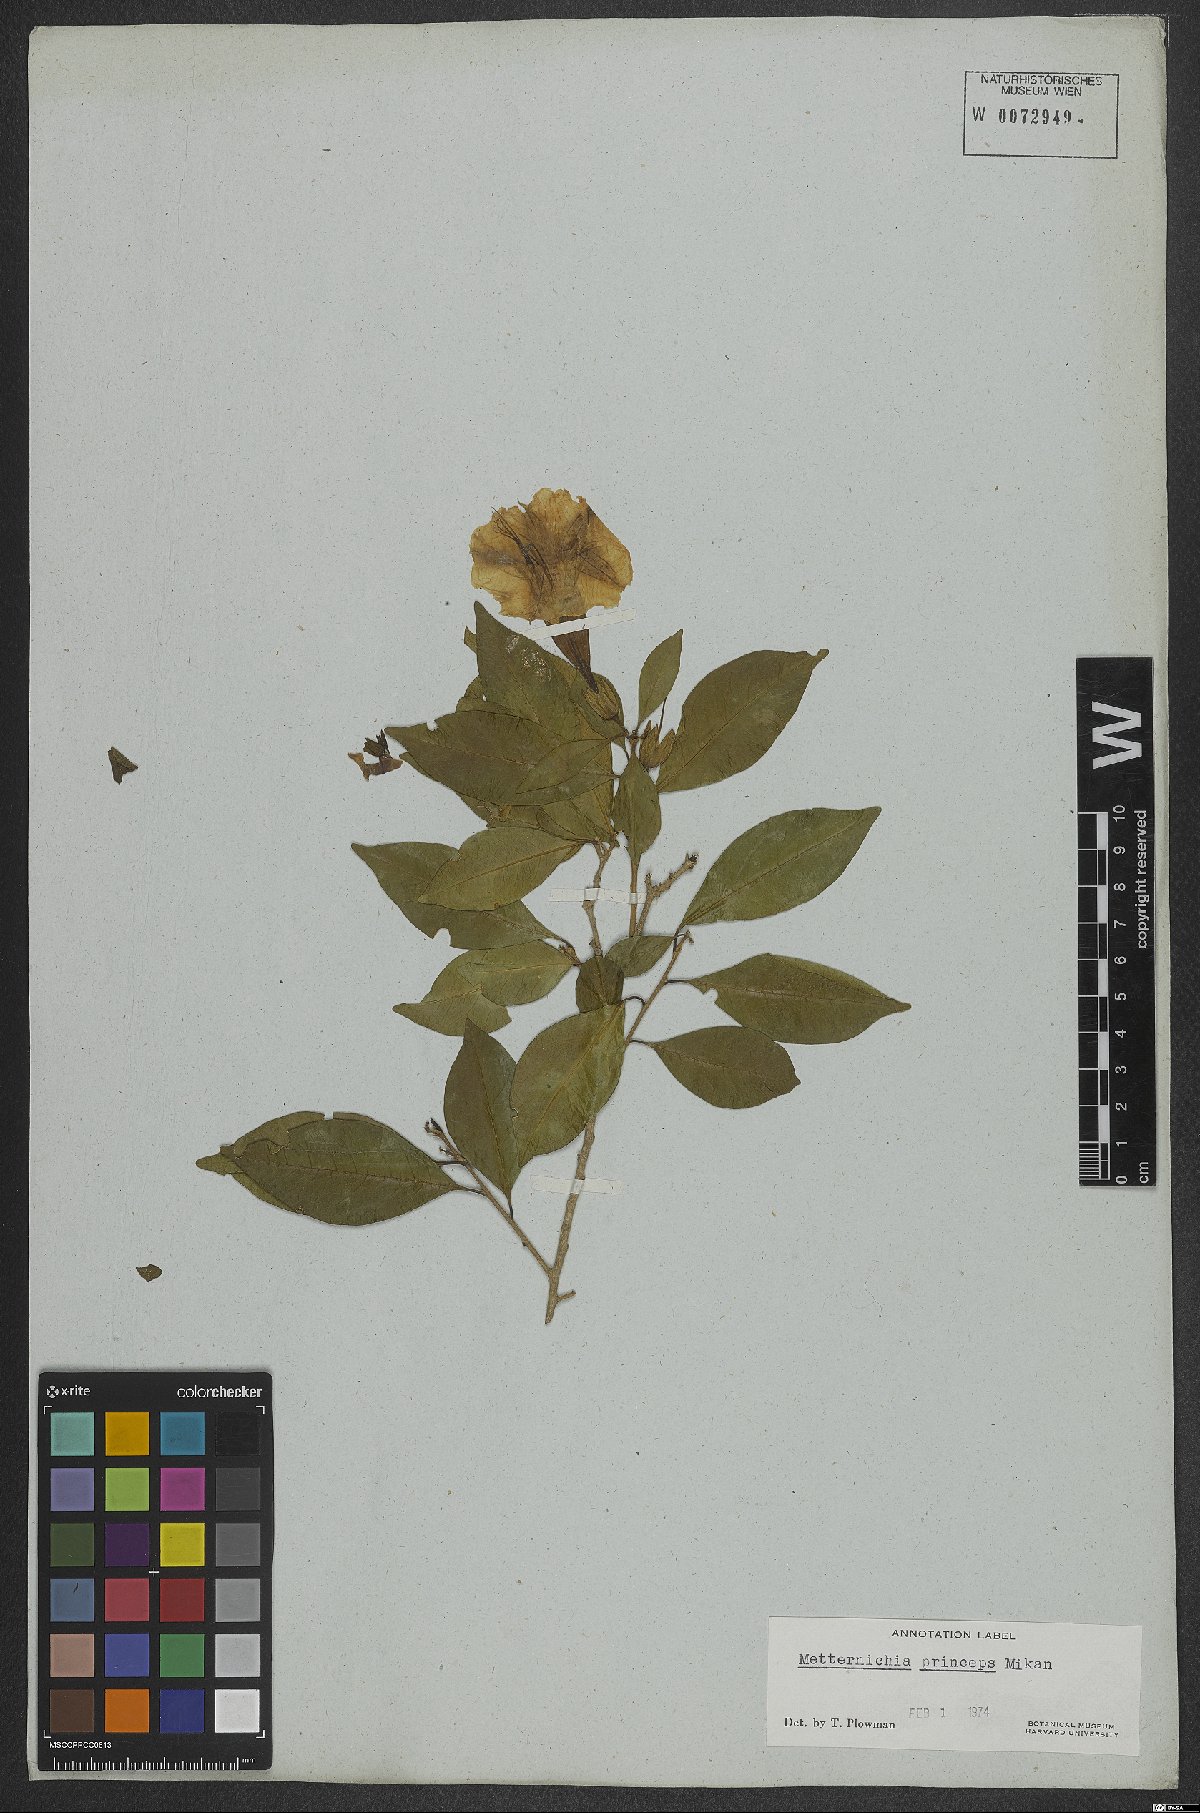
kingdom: Plantae
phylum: Tracheophyta
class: Magnoliopsida
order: Solanales
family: Solanaceae
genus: Metternichia
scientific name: Metternichia principis
